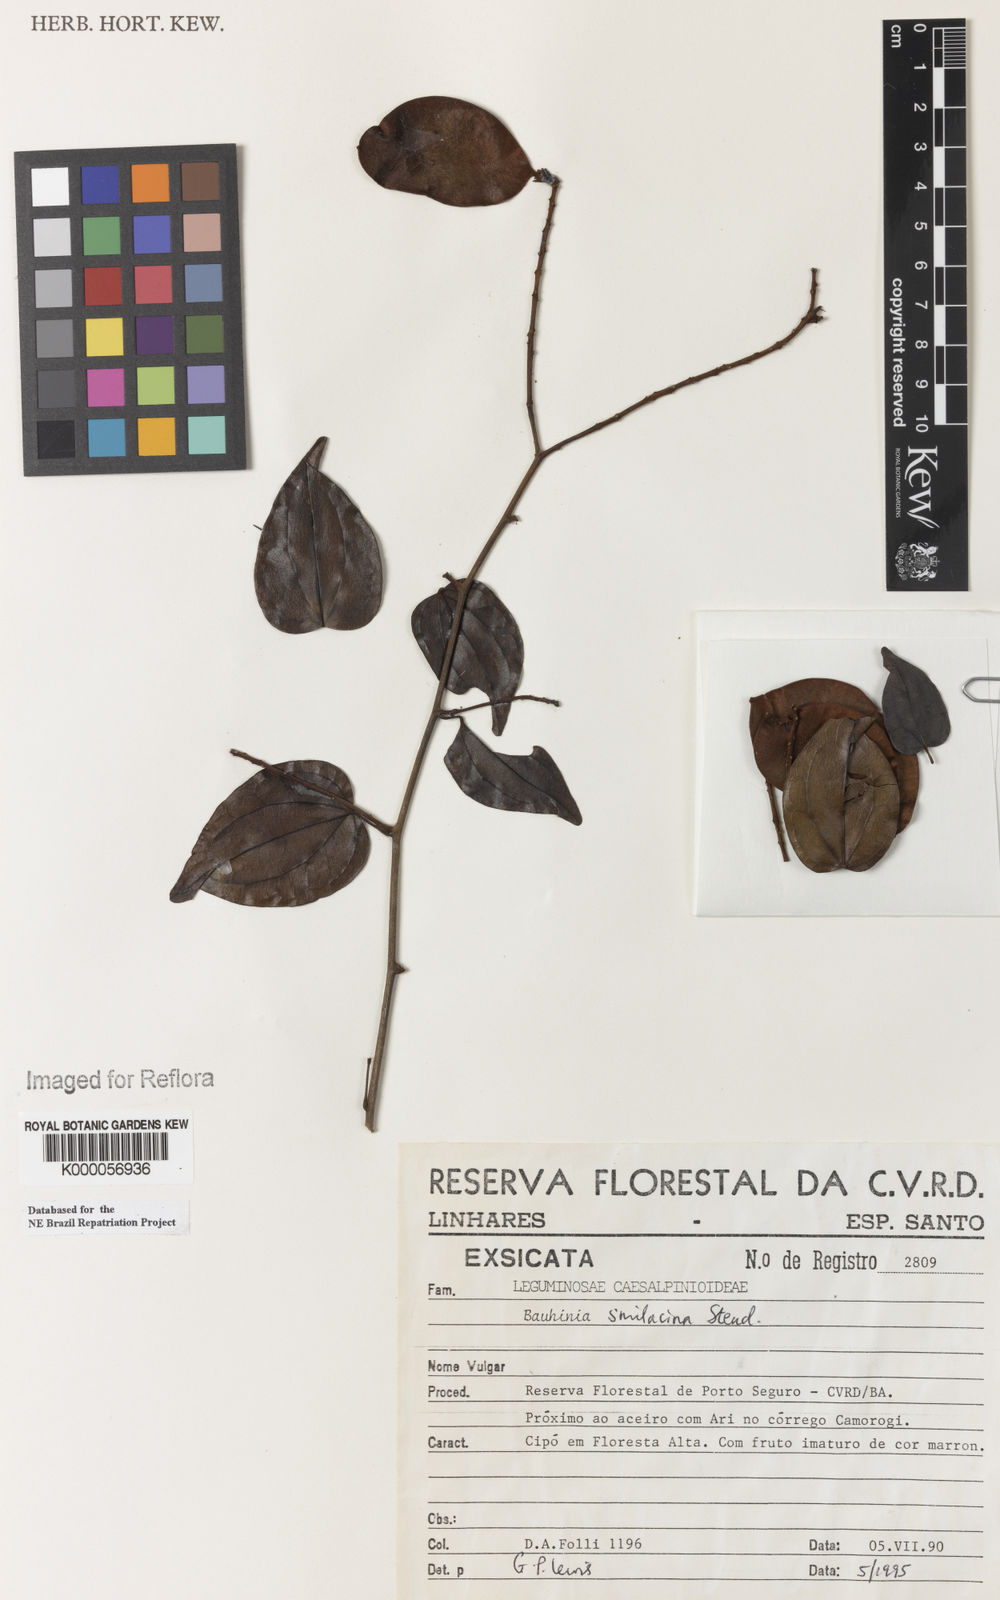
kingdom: Plantae
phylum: Tracheophyta
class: Magnoliopsida
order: Fabales
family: Fabaceae
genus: Schnella
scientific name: Schnella maximiliani
